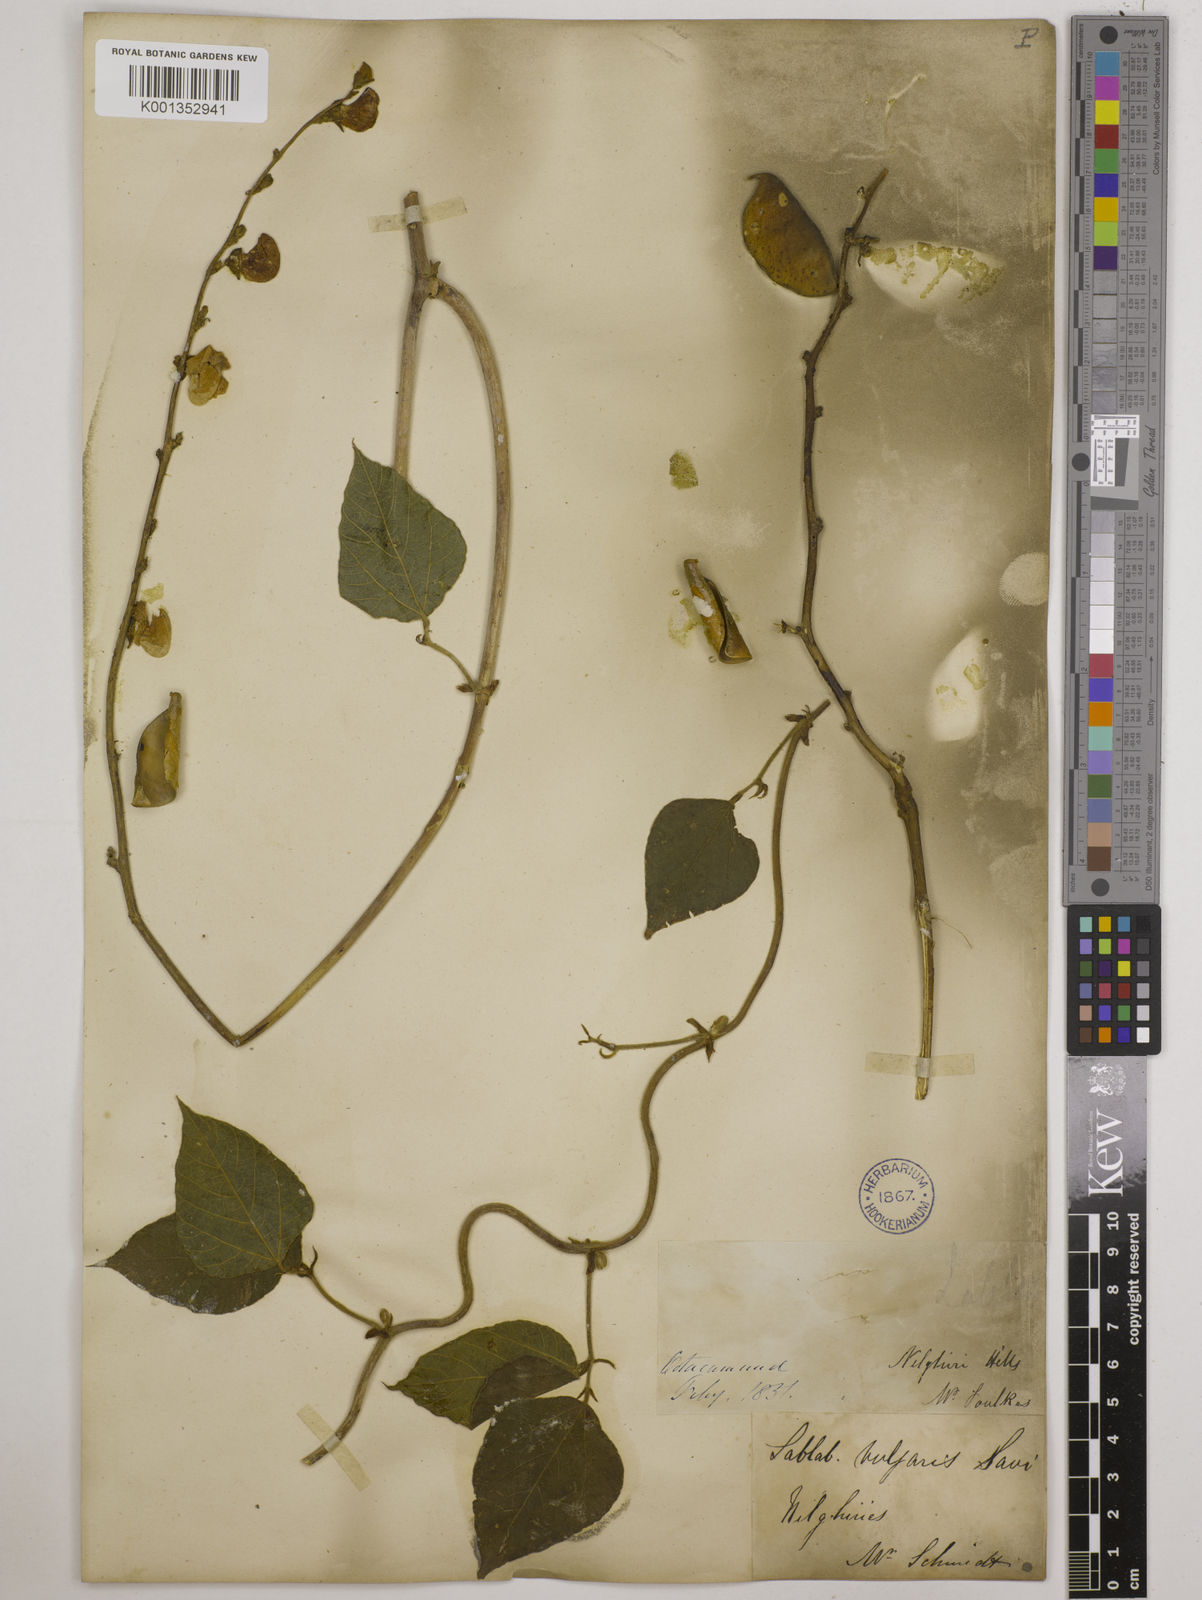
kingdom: Plantae
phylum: Tracheophyta
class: Magnoliopsida
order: Fabales
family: Fabaceae
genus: Lablab
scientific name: Lablab purpureus
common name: Lablab-bean
